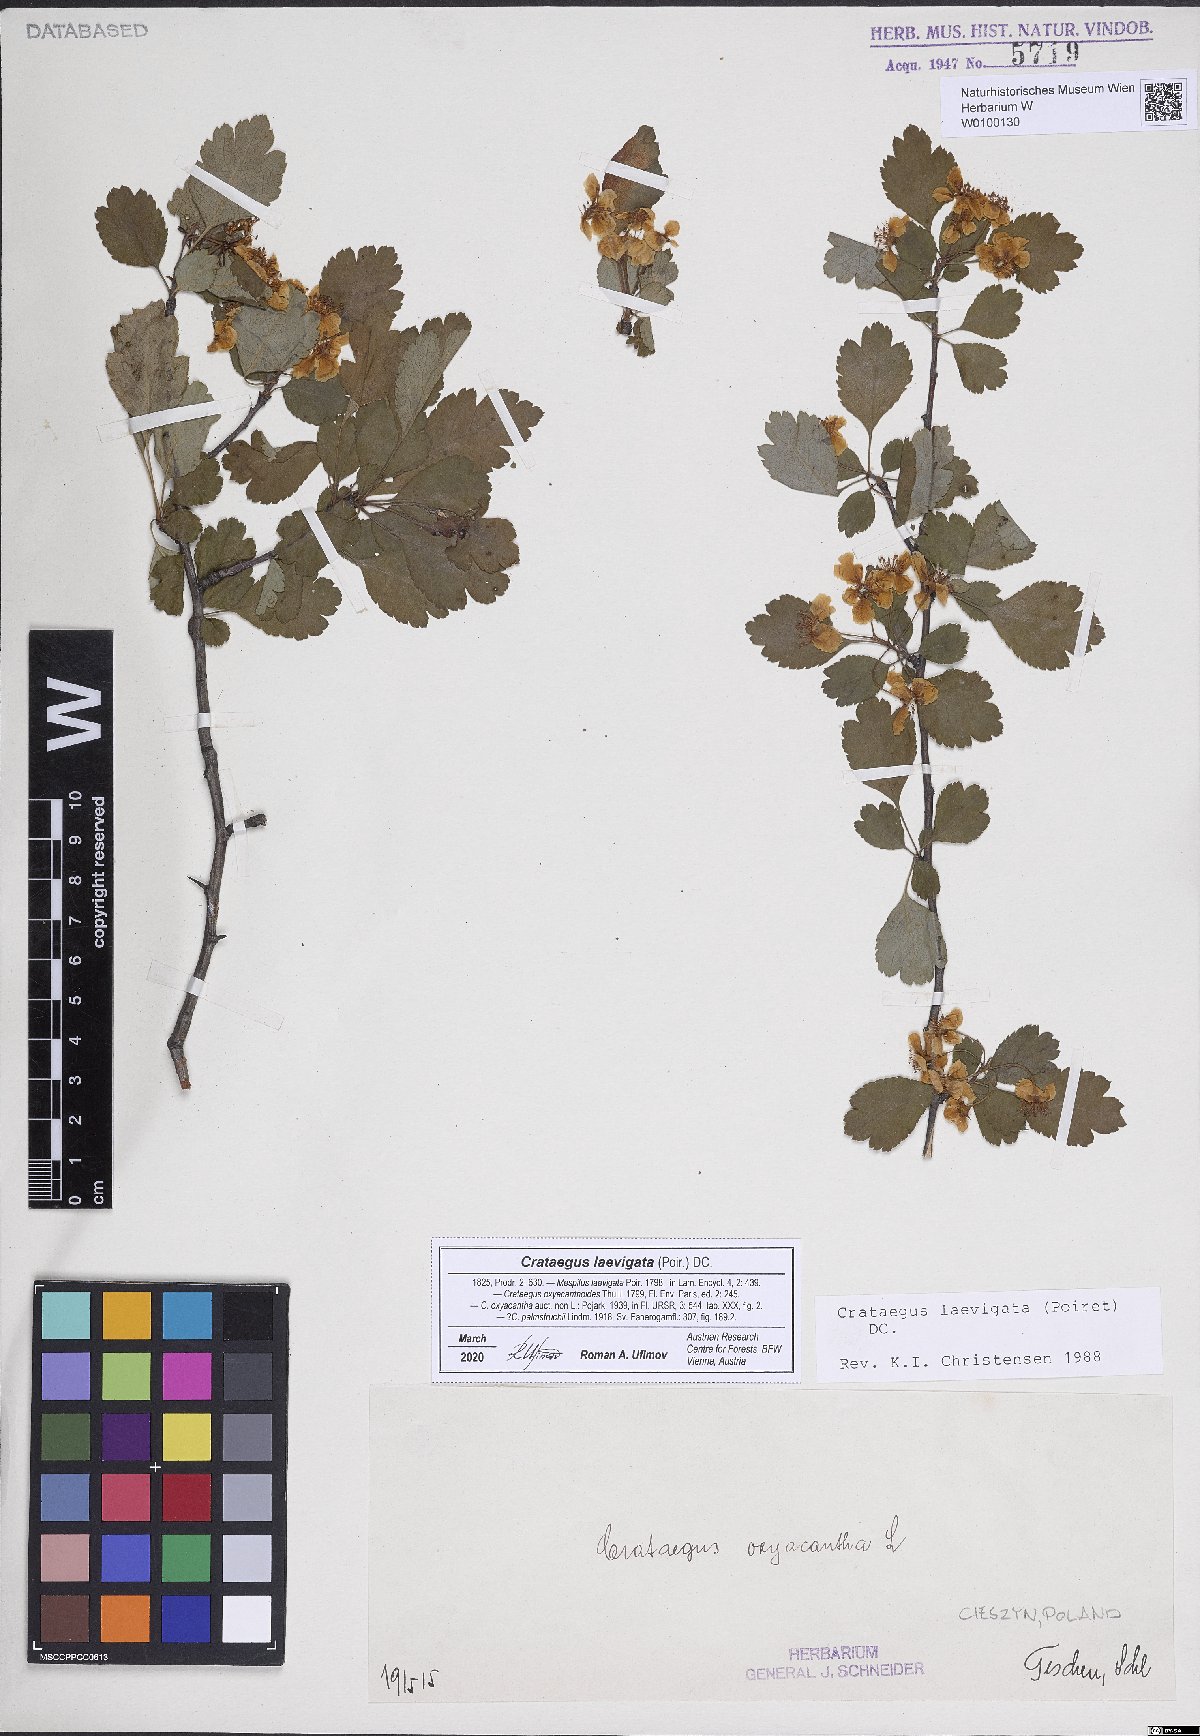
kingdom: Plantae
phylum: Tracheophyta
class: Magnoliopsida
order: Rosales
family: Rosaceae
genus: Crataegus
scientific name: Crataegus laevigata
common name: Midland hawthorn
